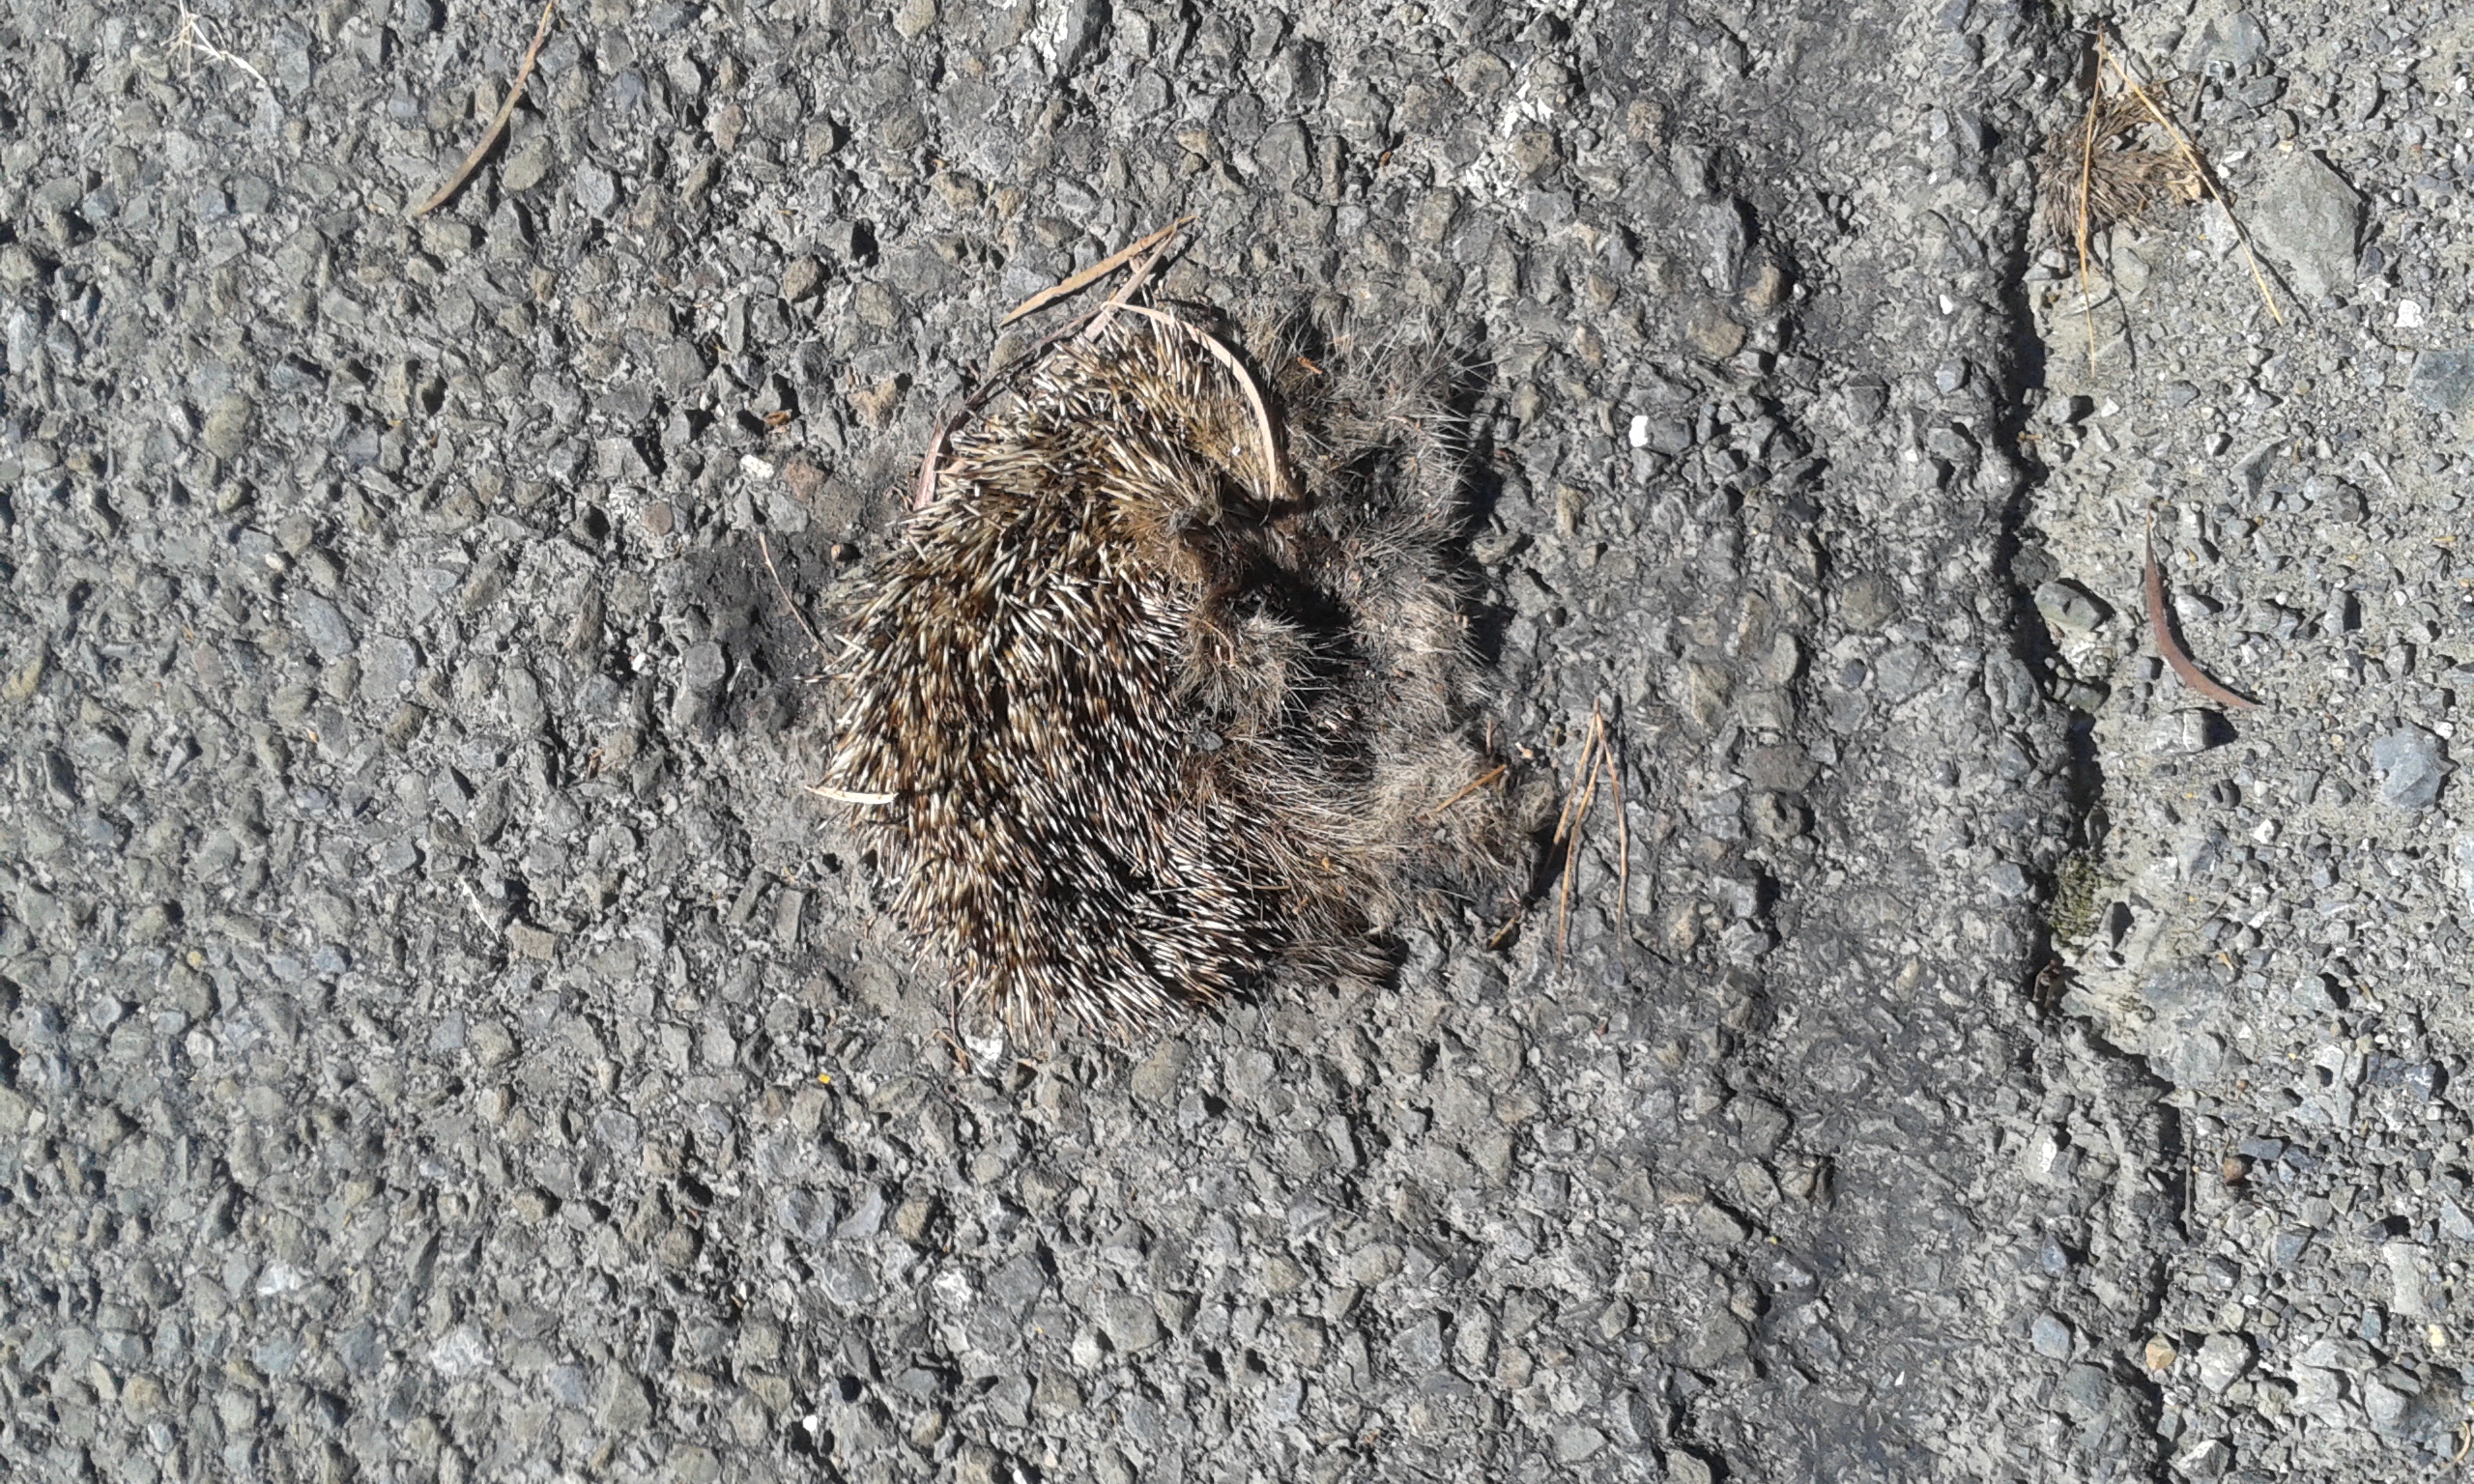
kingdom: Animalia
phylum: Chordata
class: Mammalia
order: Erinaceomorpha
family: Erinaceidae
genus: Erinaceus
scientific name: Erinaceus
